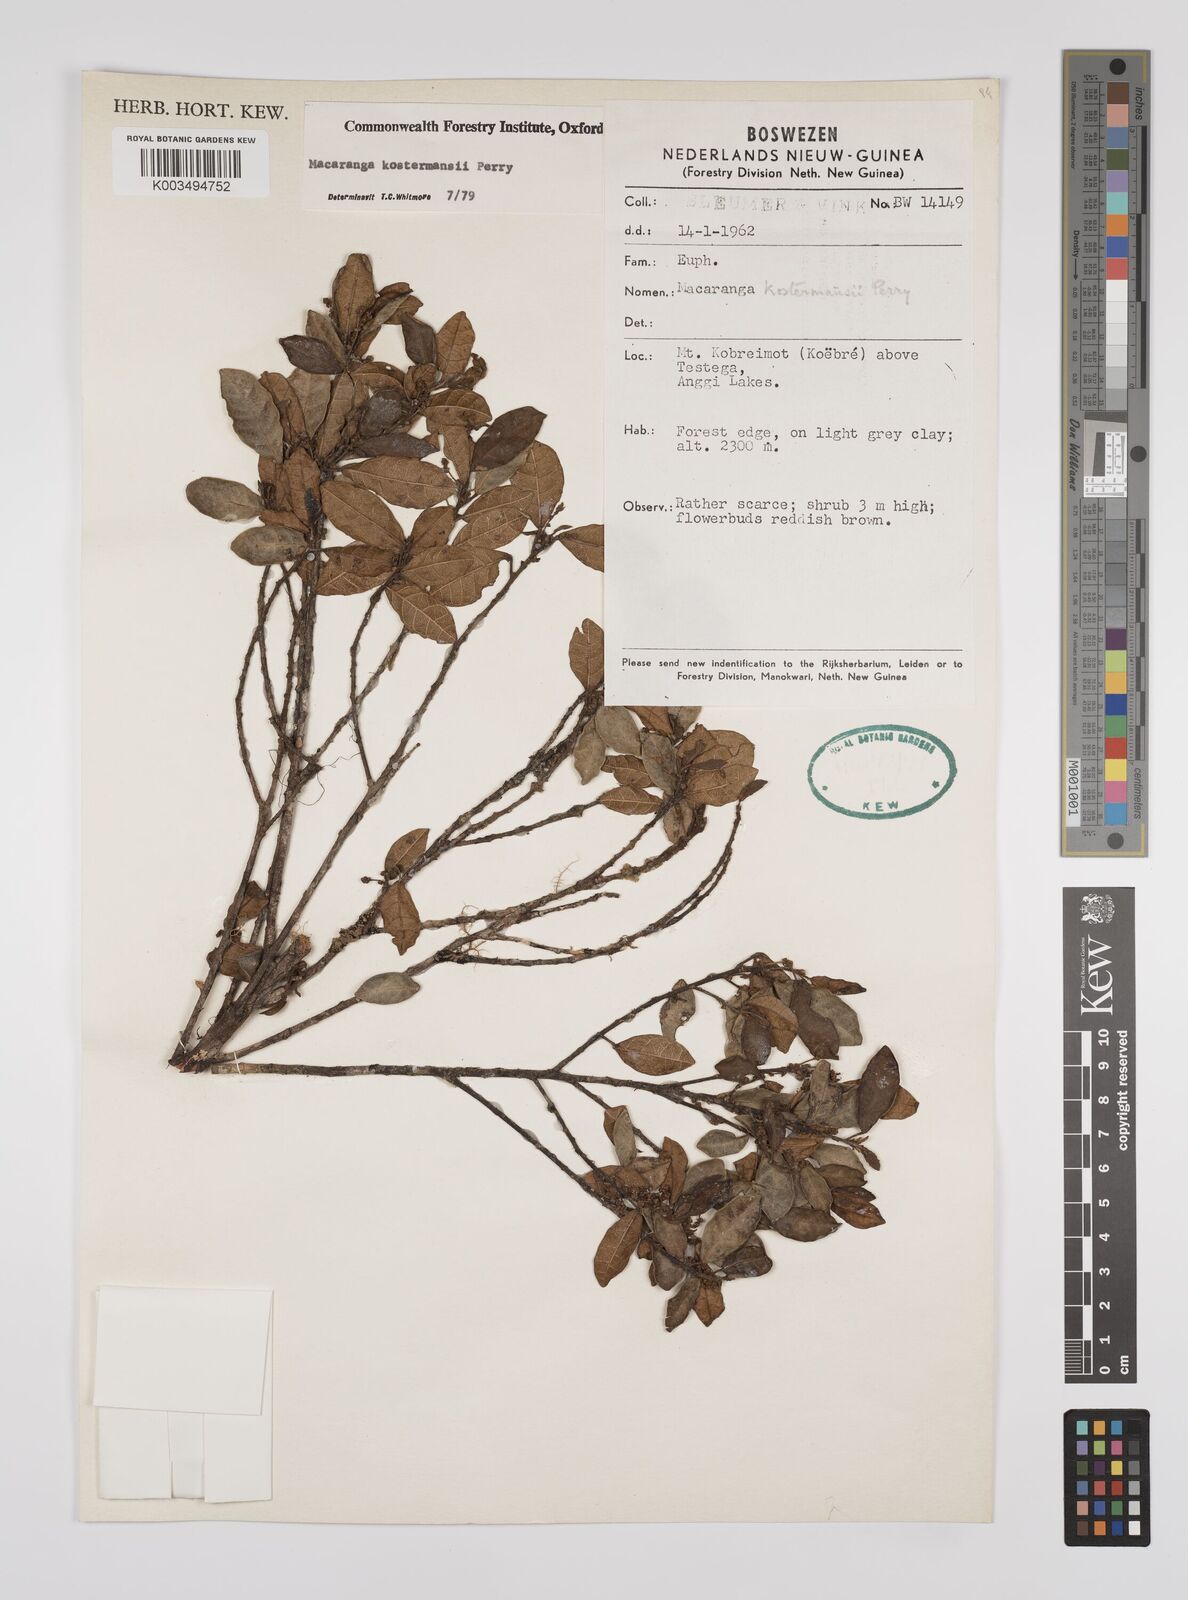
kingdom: Plantae
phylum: Tracheophyta
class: Magnoliopsida
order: Malpighiales
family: Euphorbiaceae
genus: Macaranga
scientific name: Macaranga kostermansii
